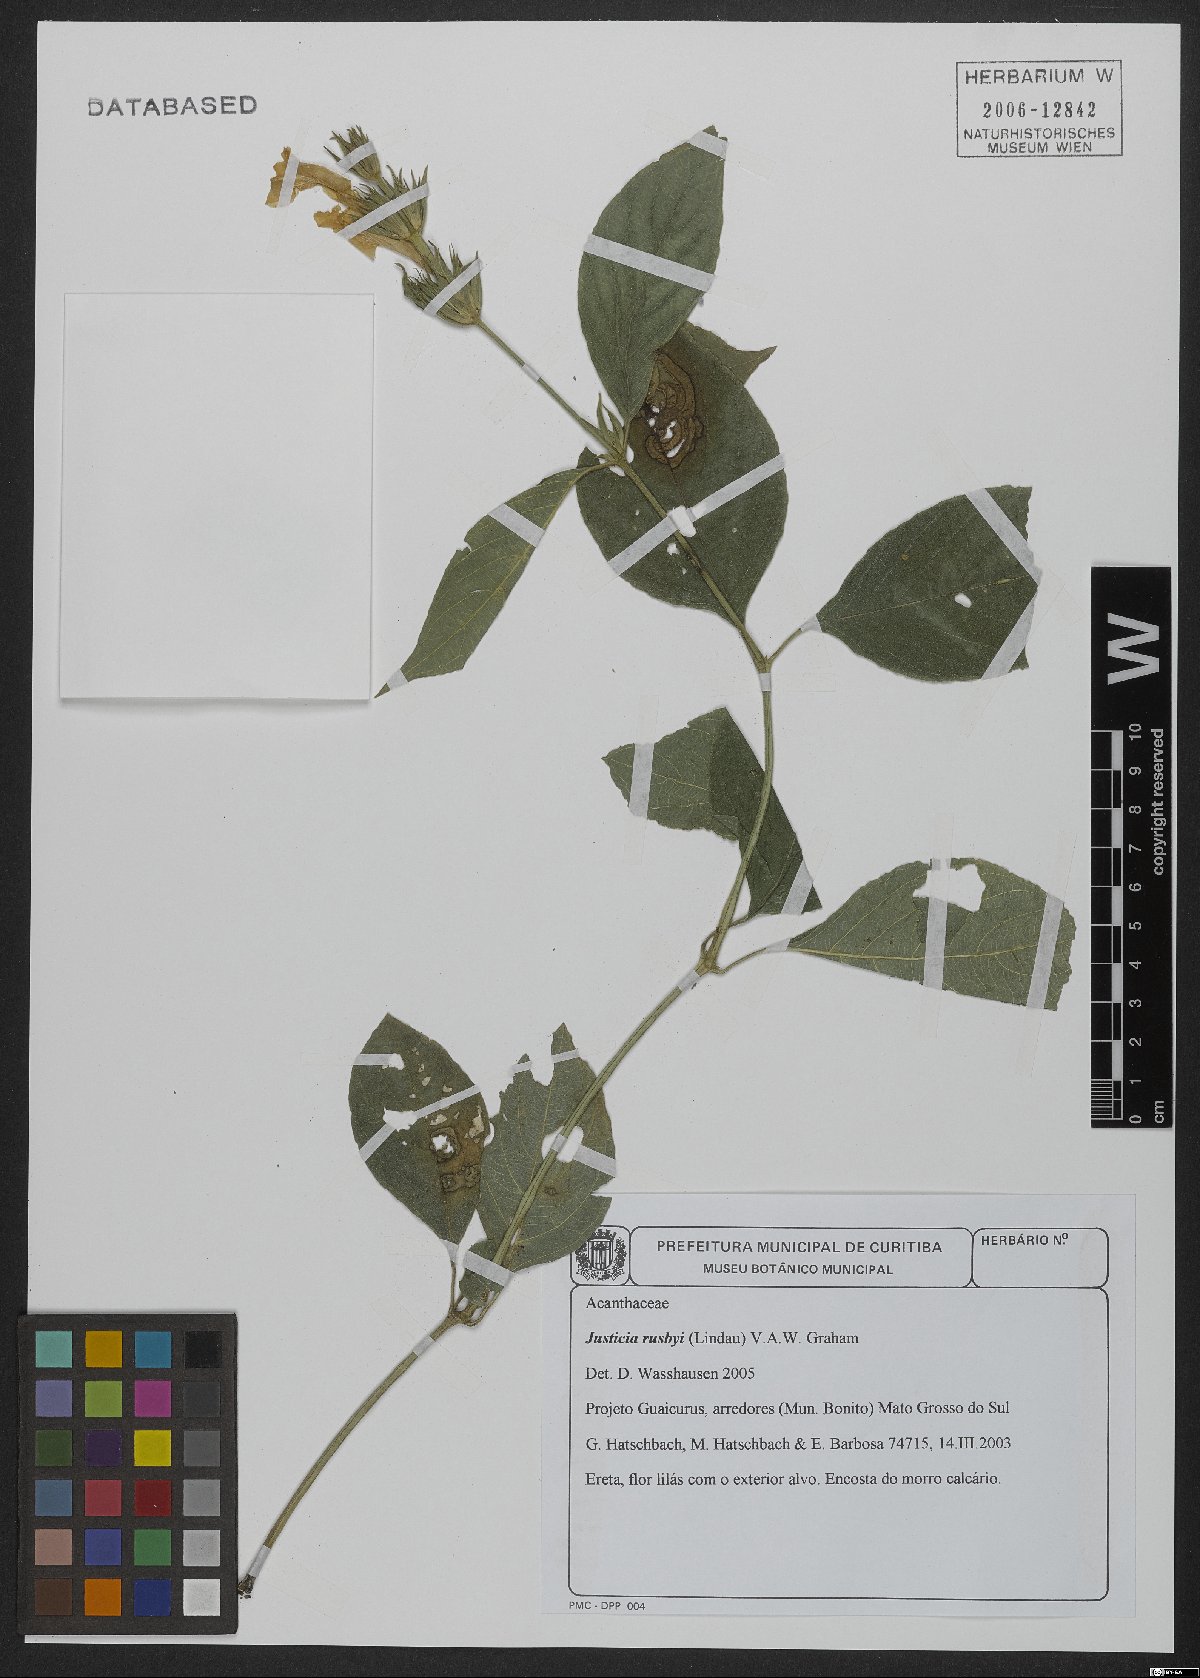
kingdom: Plantae
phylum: Tracheophyta
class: Magnoliopsida
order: Lamiales
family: Acanthaceae
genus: Justicia
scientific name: Justicia rusbyi
